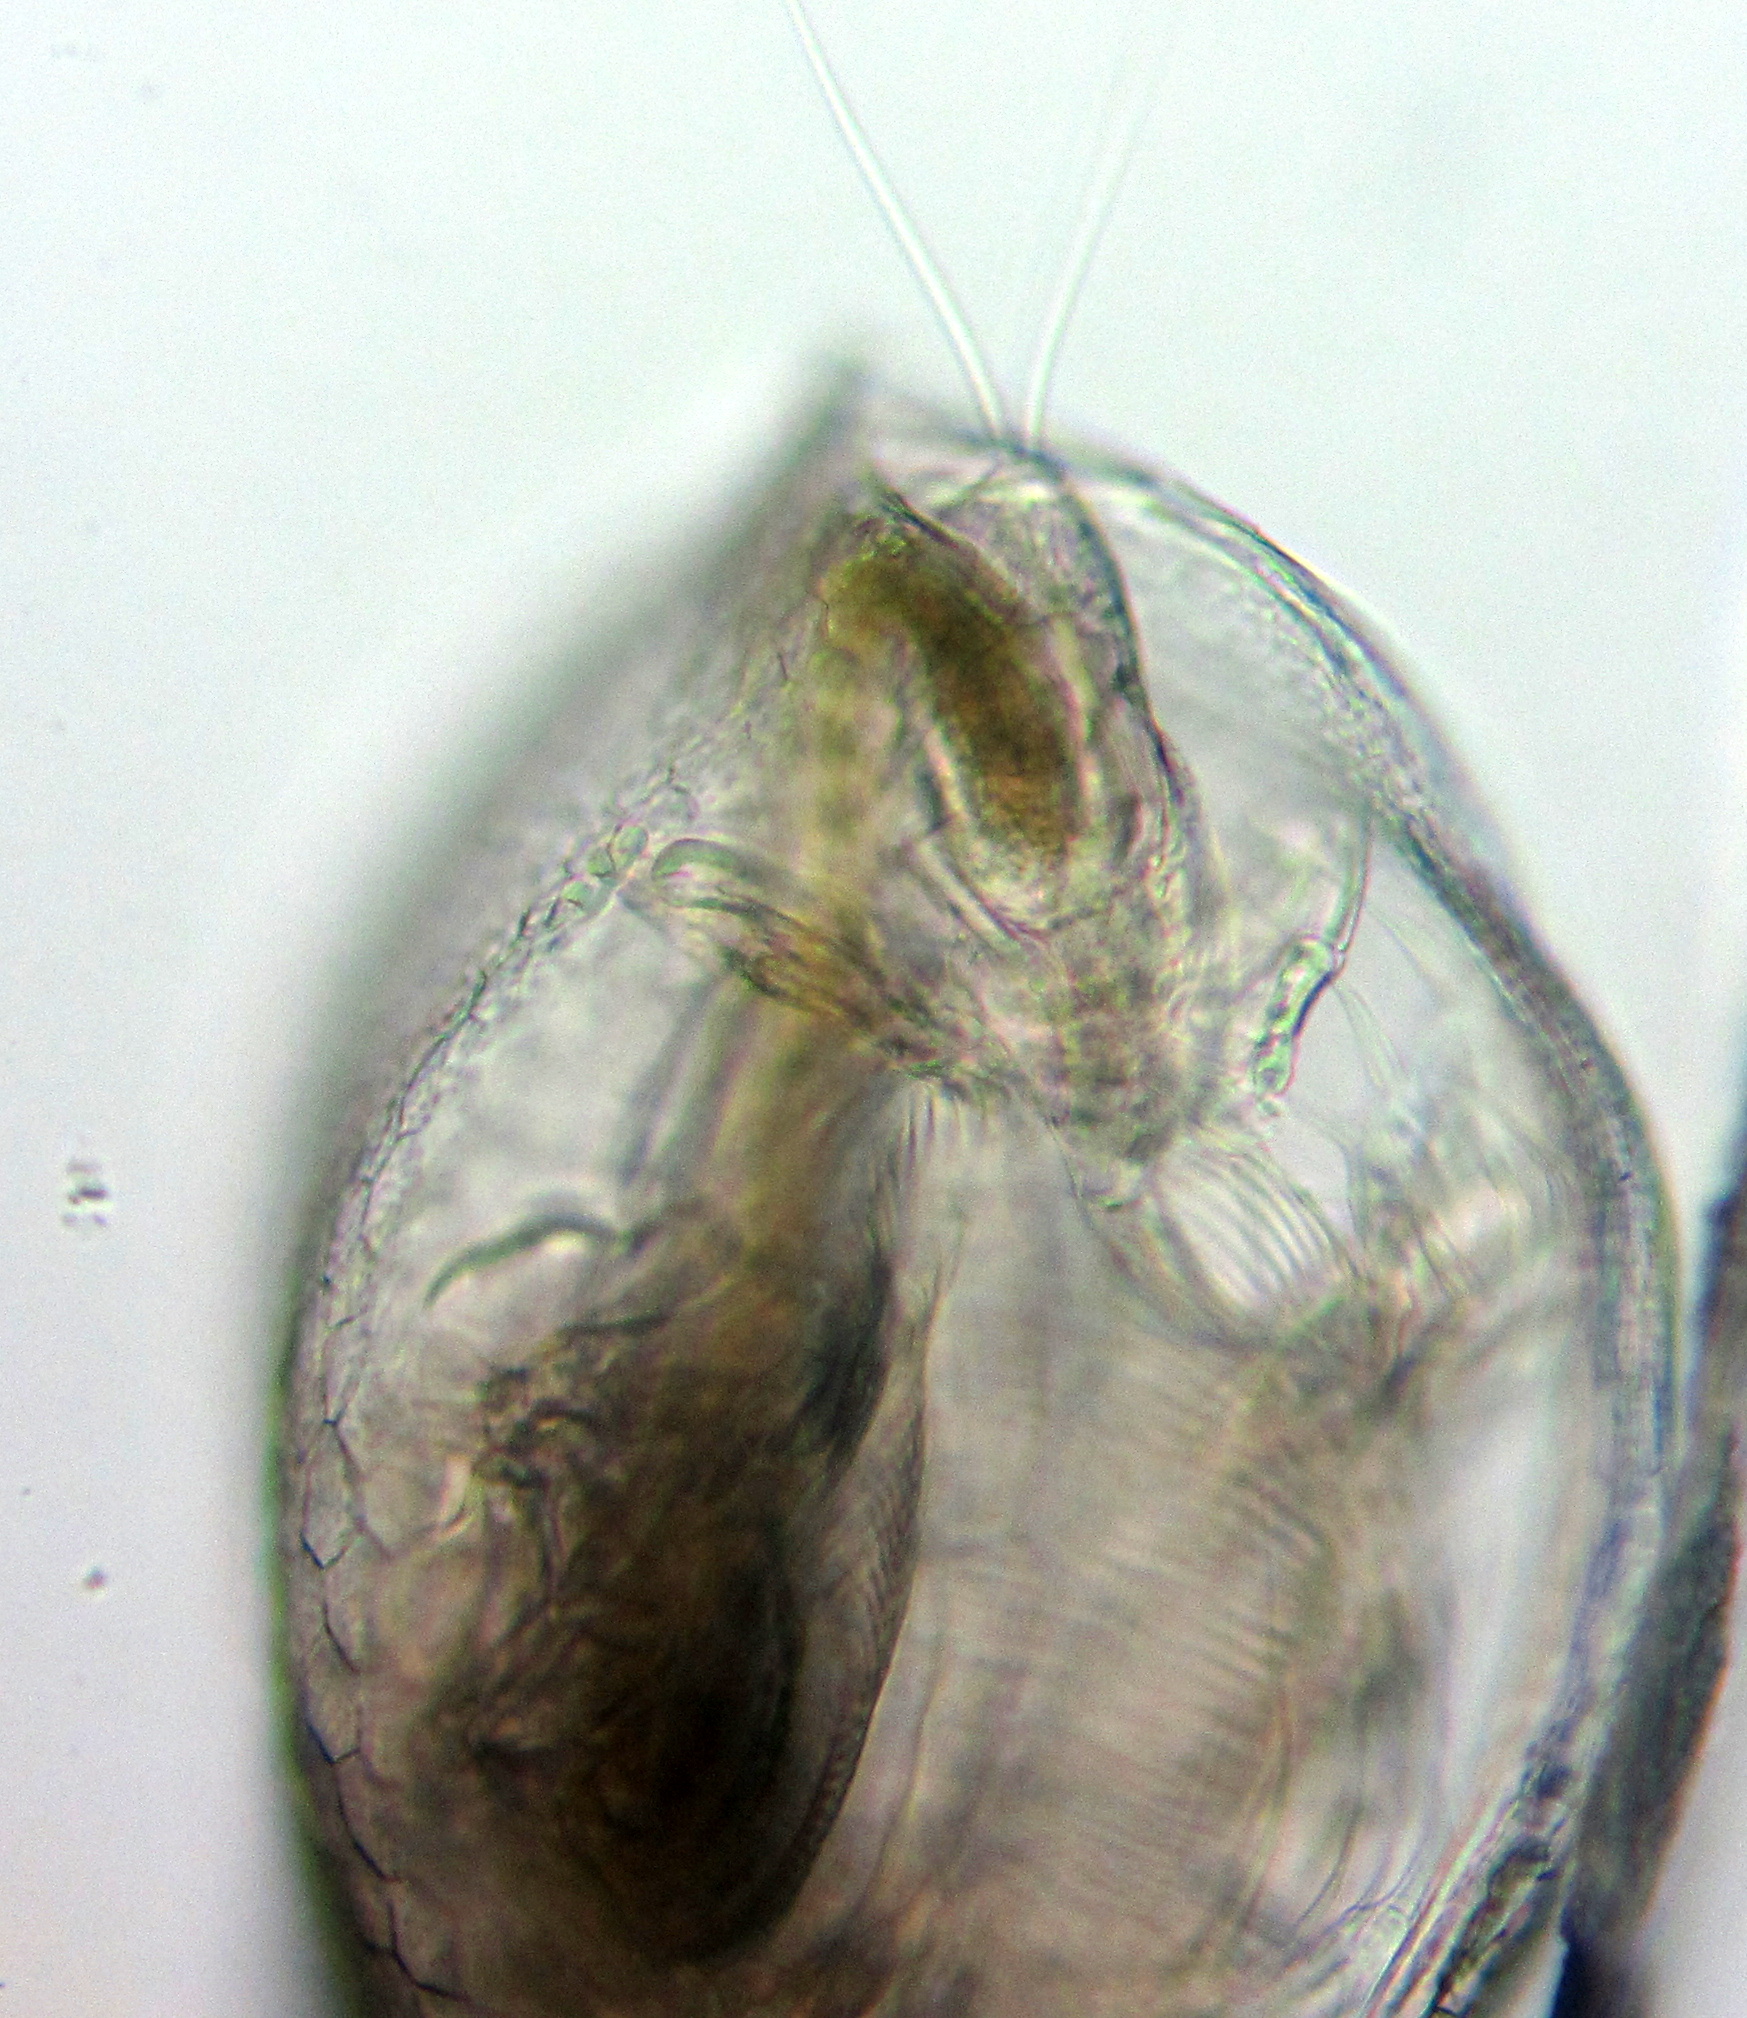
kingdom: Animalia
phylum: Arthropoda
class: Branchiopoda
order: Diplostraca
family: Daphniidae
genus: Ceriodaphnia
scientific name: Ceriodaphnia pulchella
